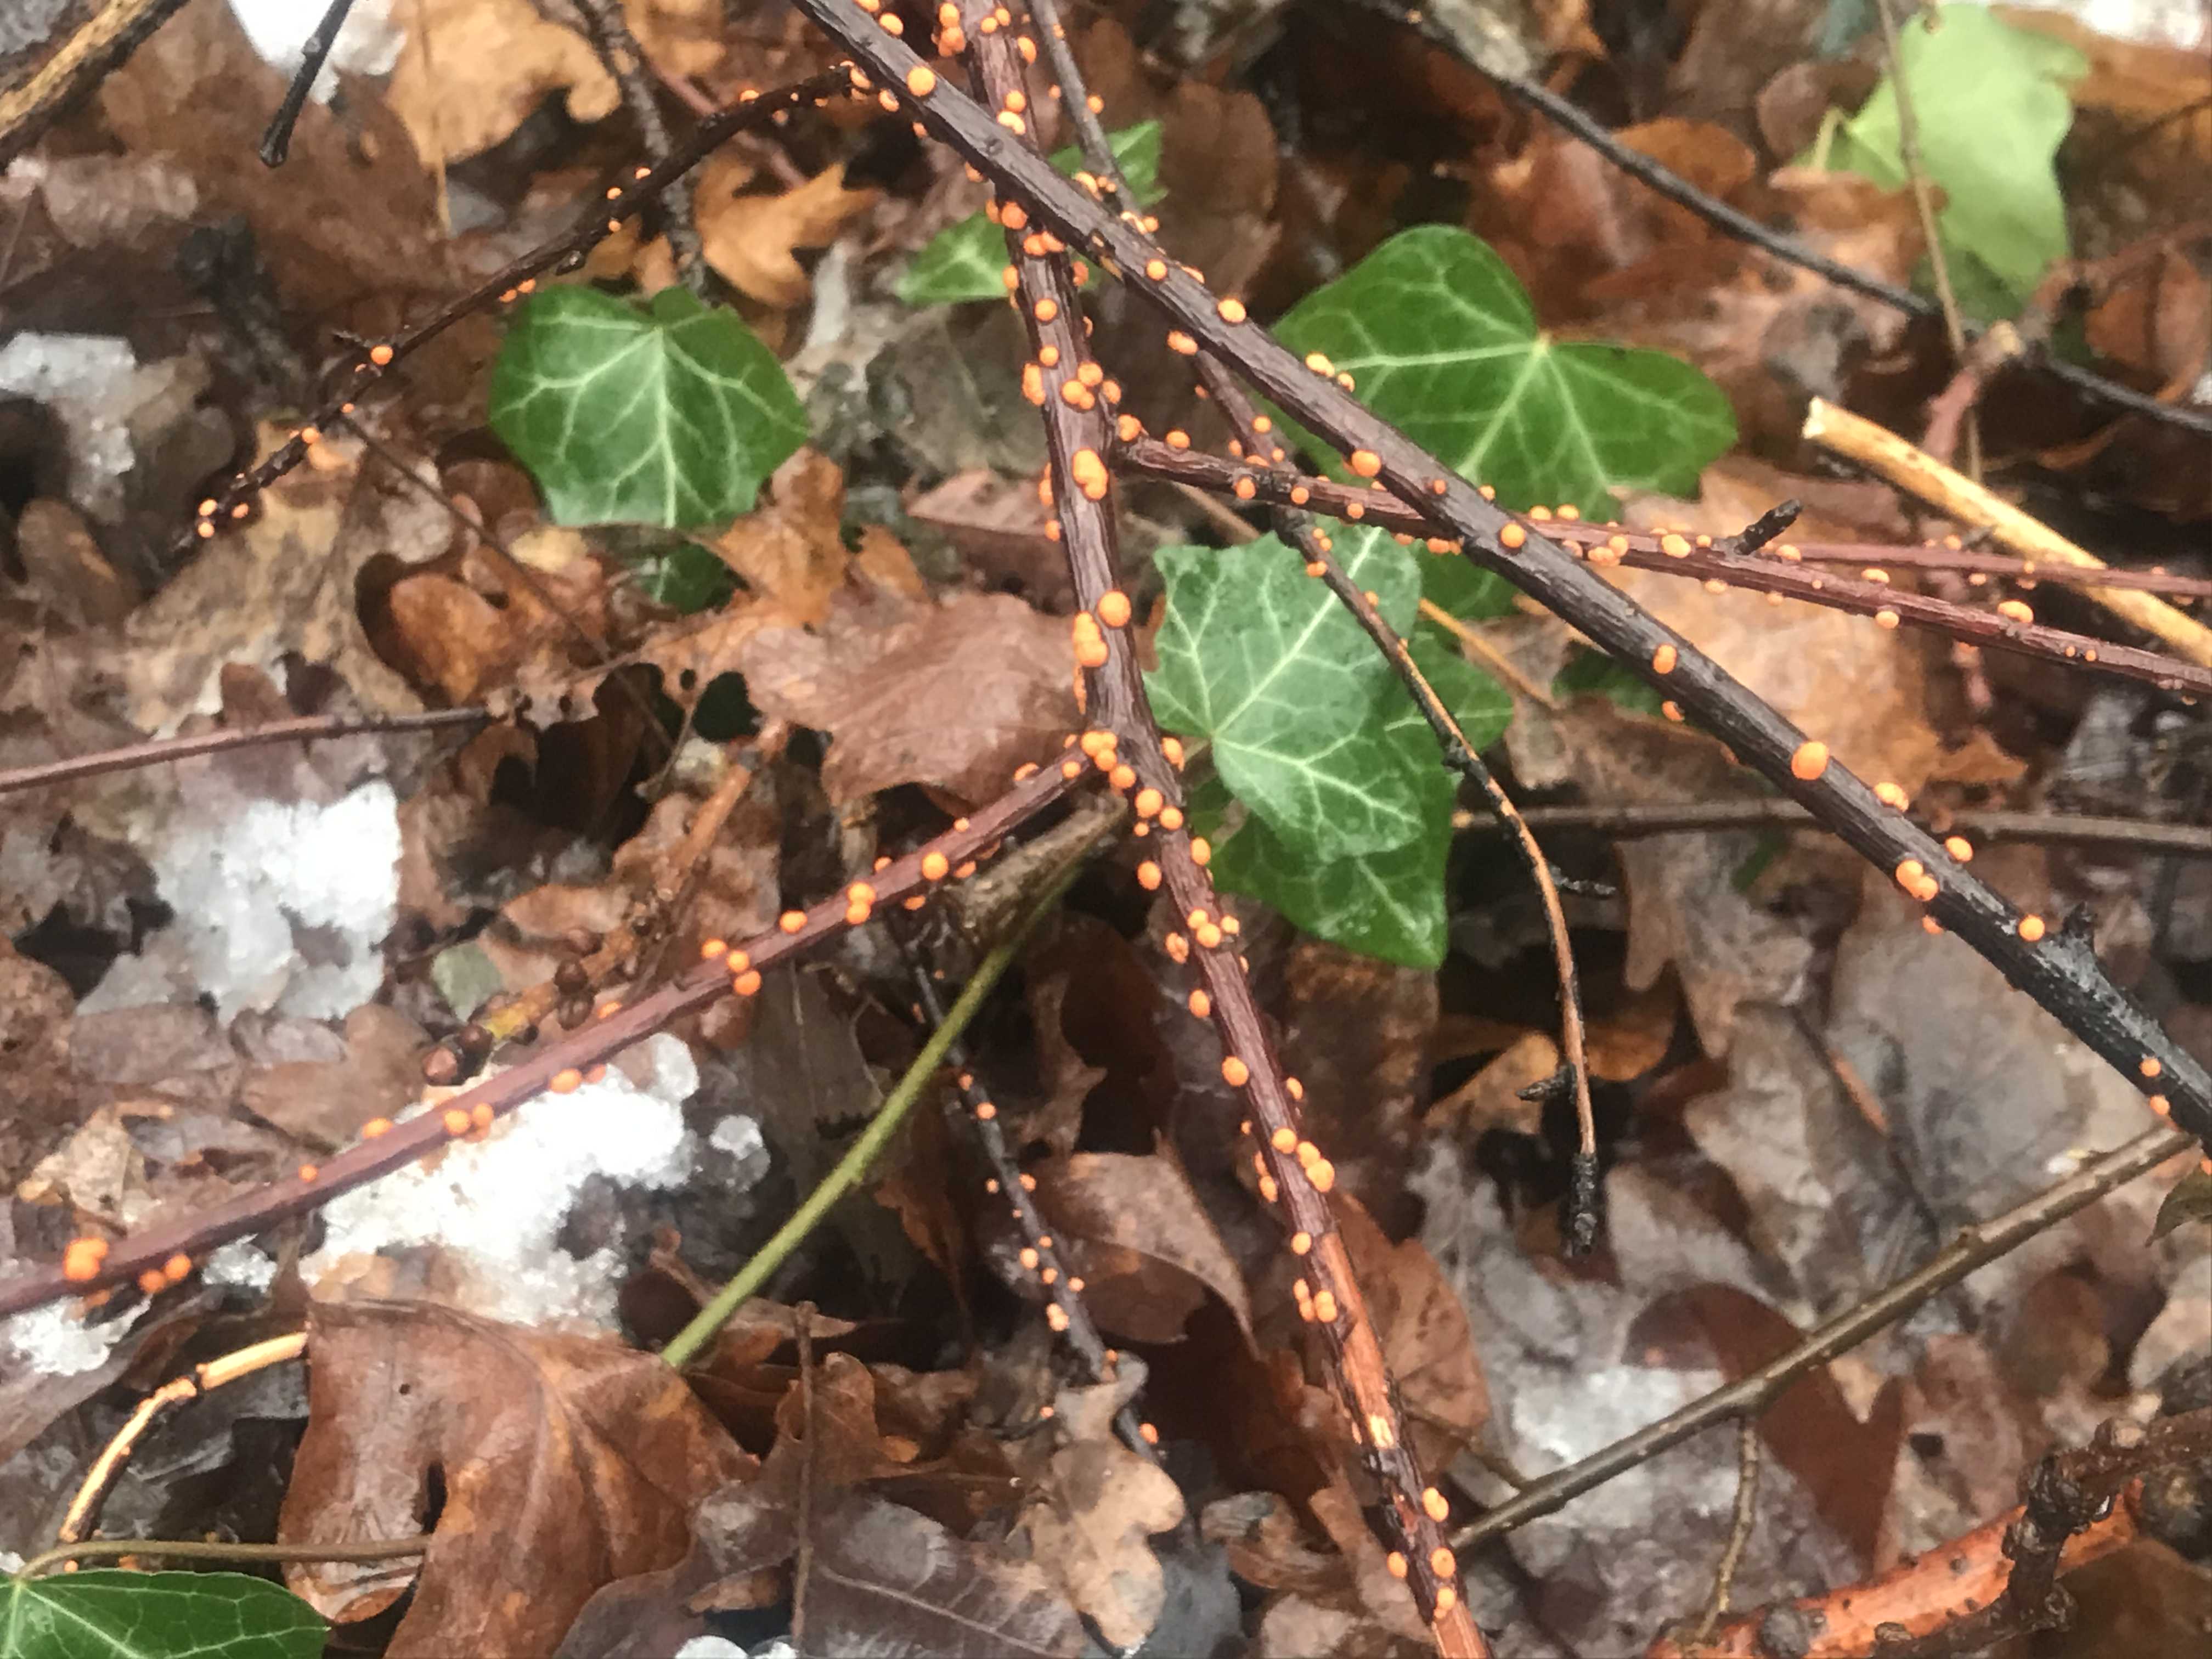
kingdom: Fungi
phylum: Ascomycota
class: Sordariomycetes
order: Hypocreales
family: Nectriaceae
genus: Nectria
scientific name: Nectria cinnabarina
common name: almindelig cinnobersvamp
